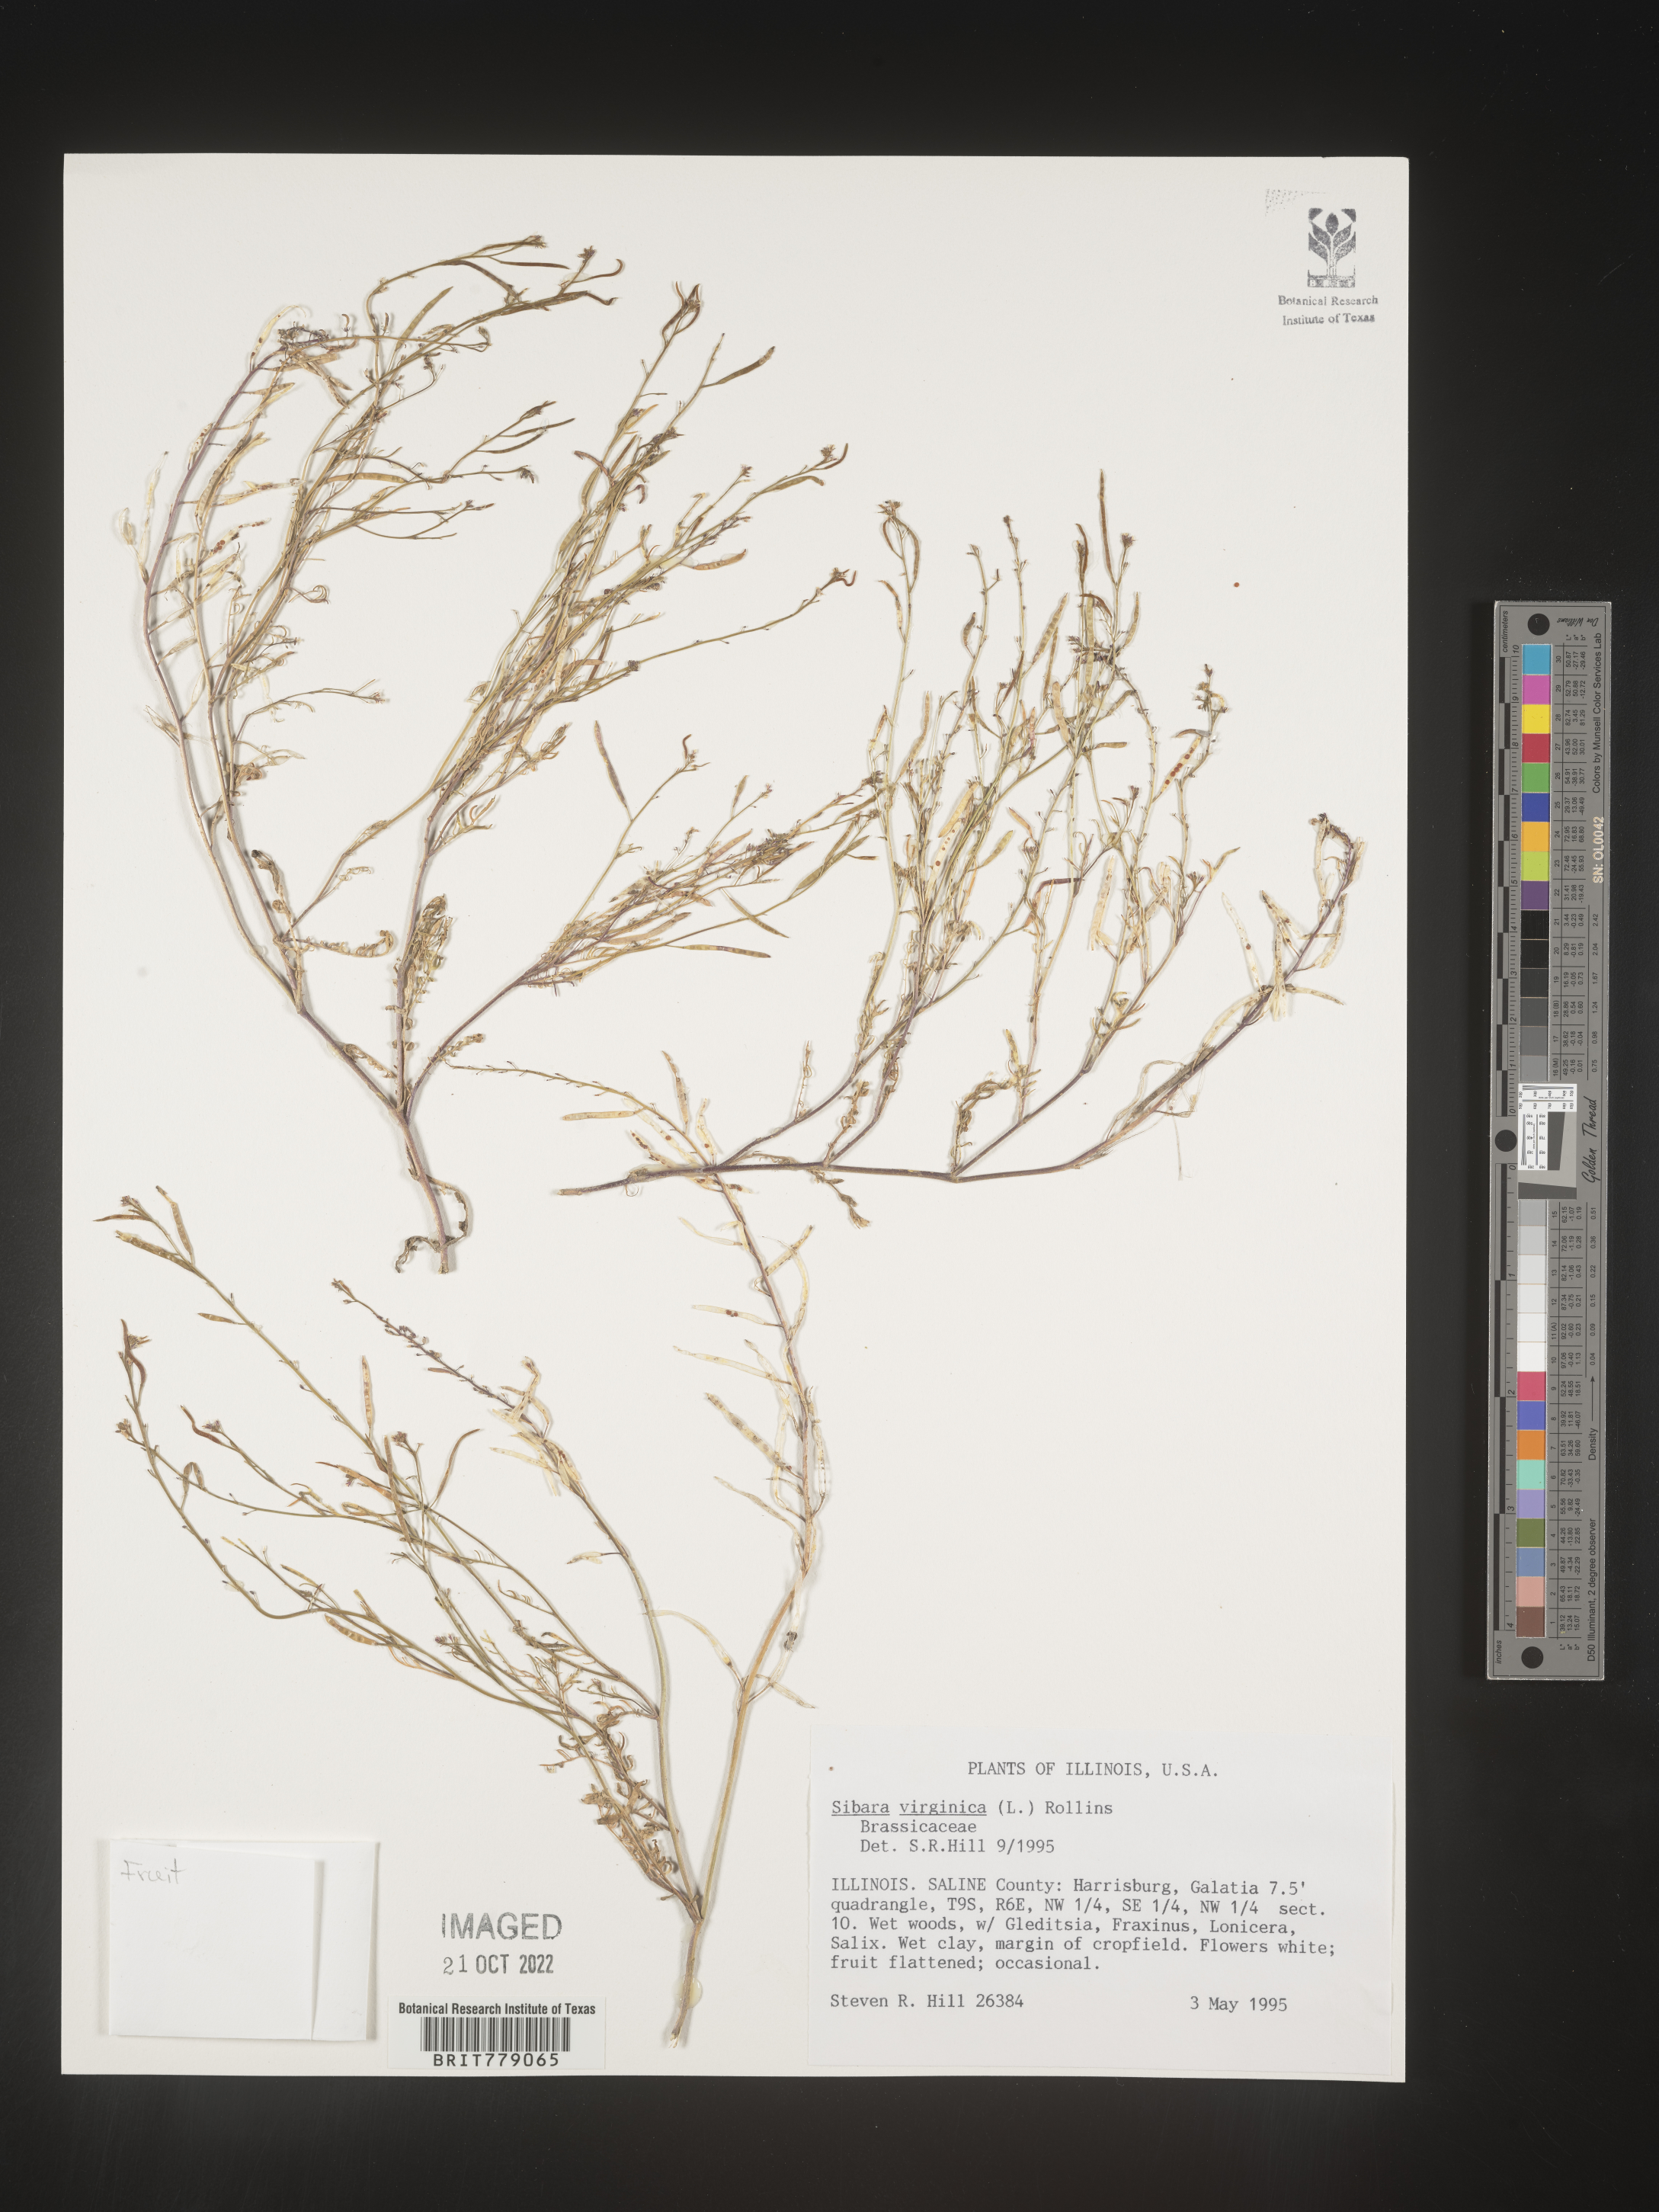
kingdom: Plantae
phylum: Tracheophyta
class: Magnoliopsida
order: Brassicales
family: Brassicaceae
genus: Sibara
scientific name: Sibara
